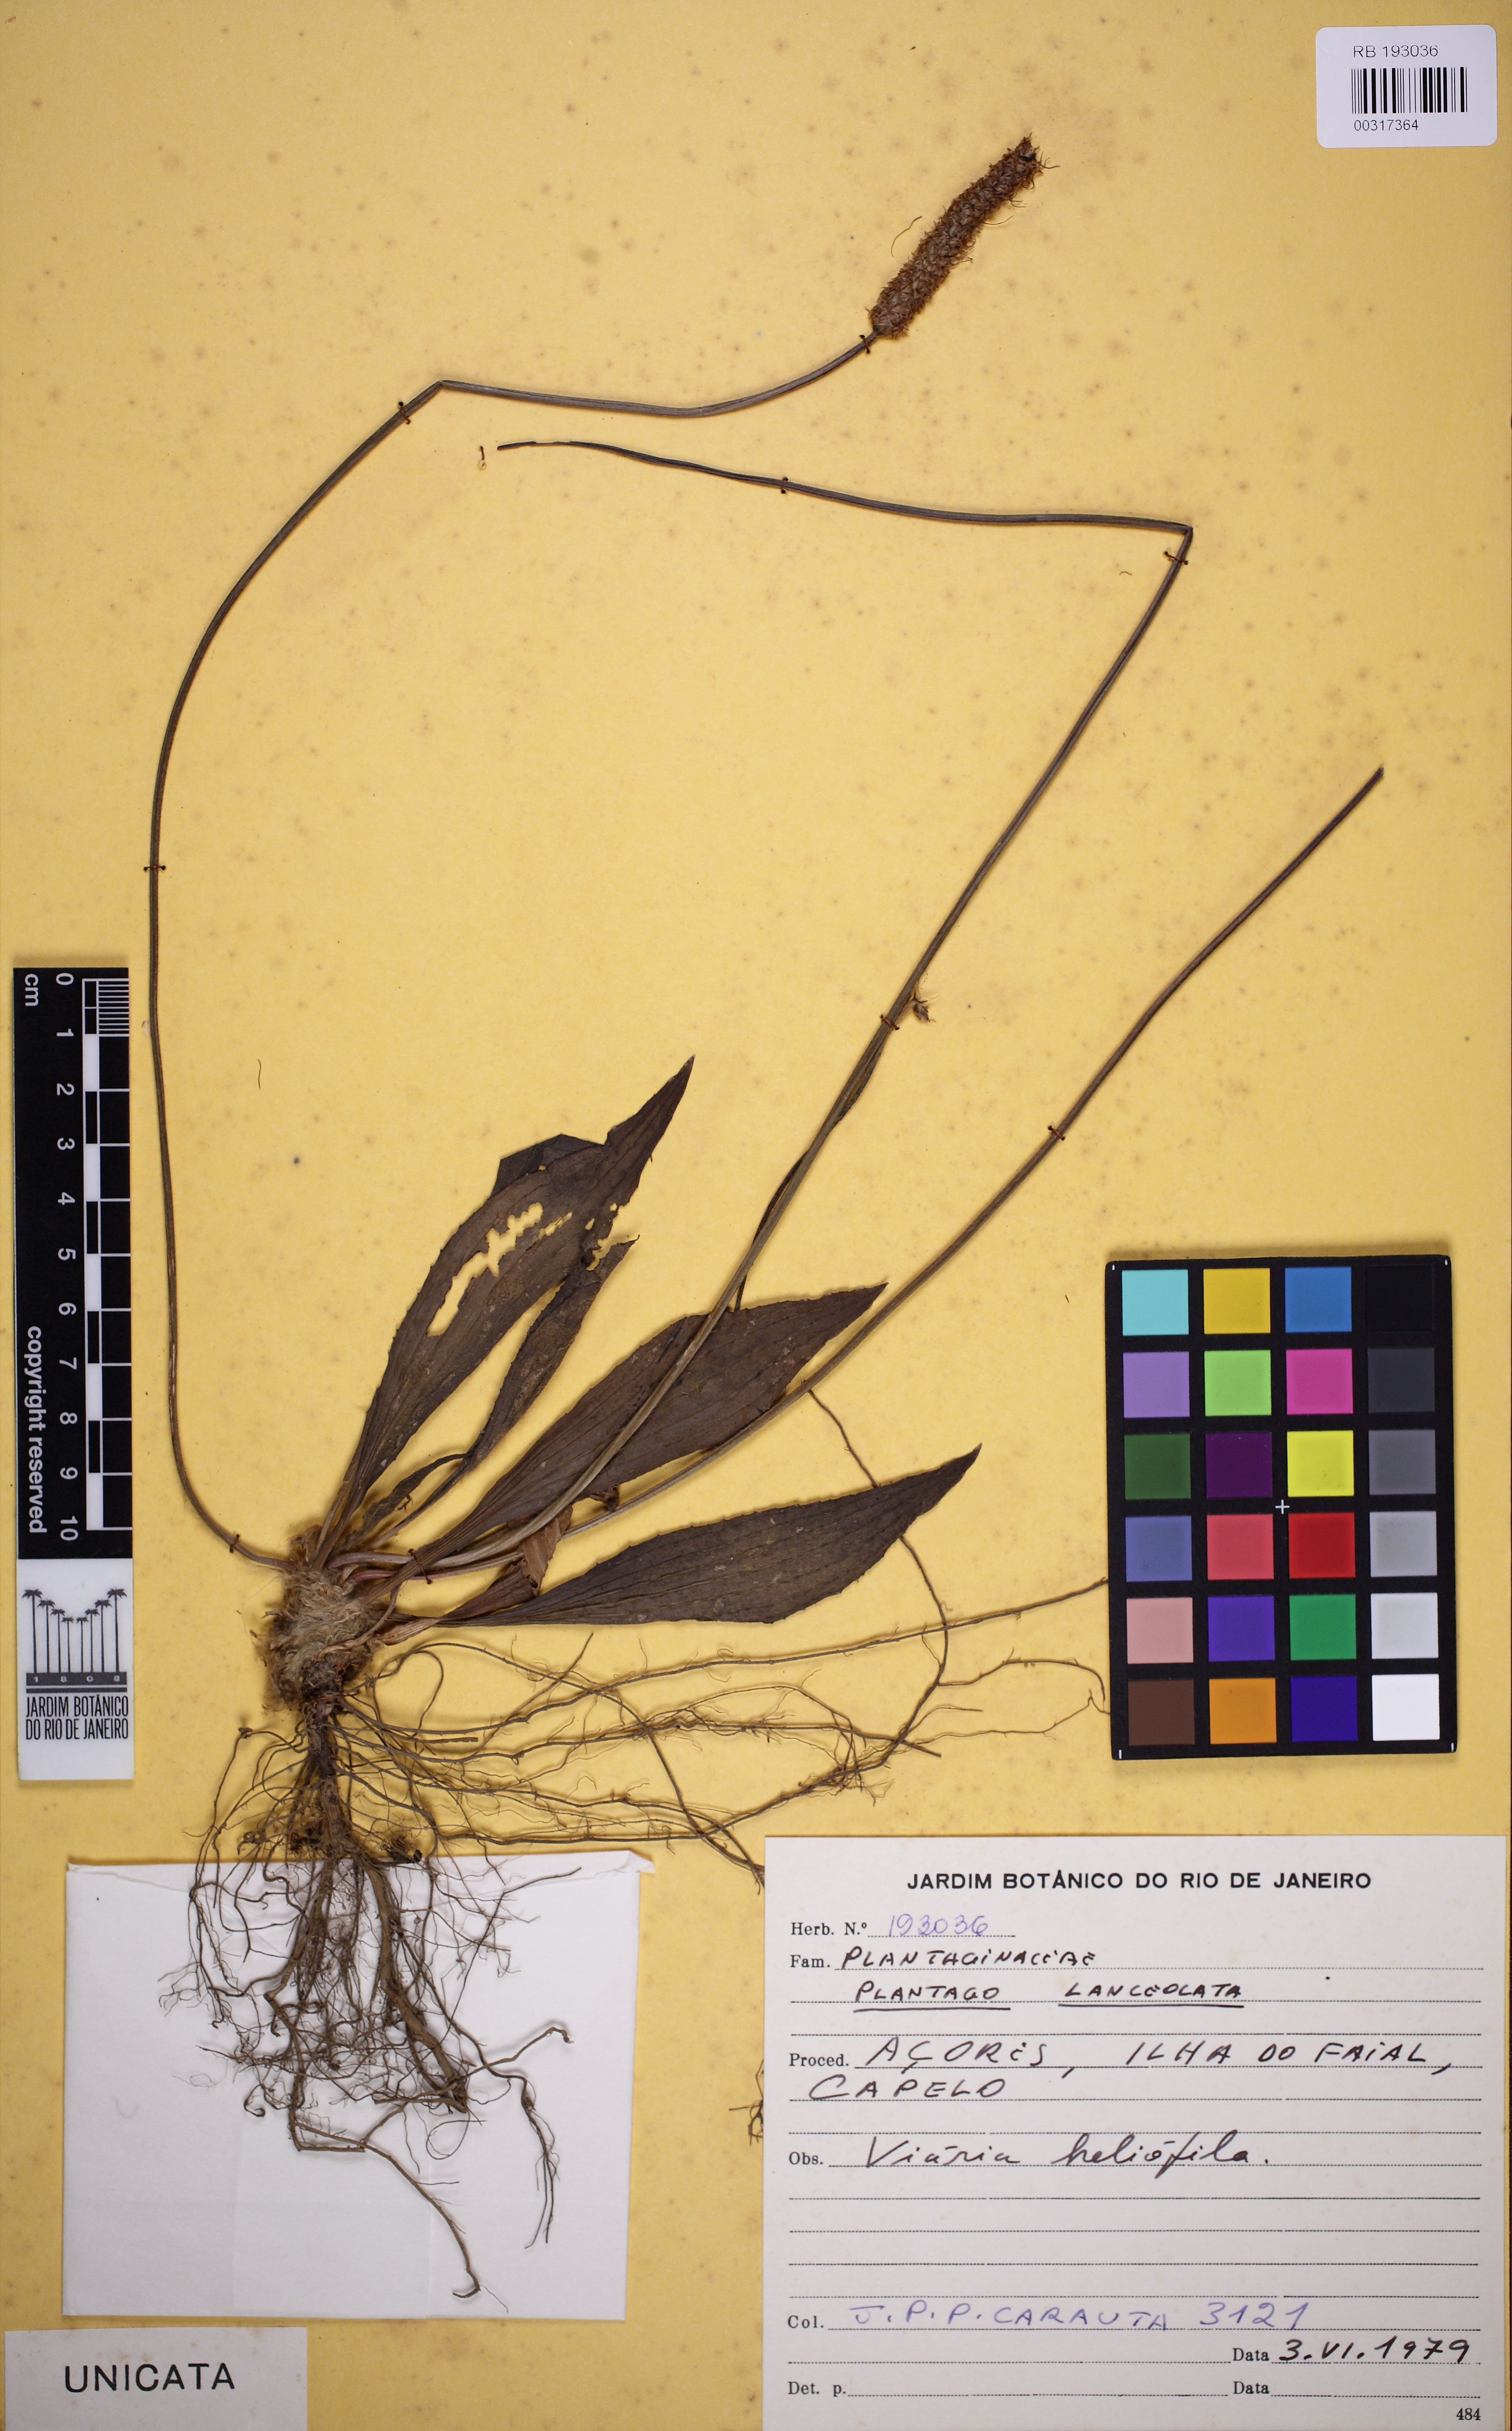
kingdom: Plantae
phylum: Tracheophyta
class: Magnoliopsida
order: Lamiales
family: Plantaginaceae
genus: Plantago
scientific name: Plantago lanceolata
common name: Ribwort plantain
